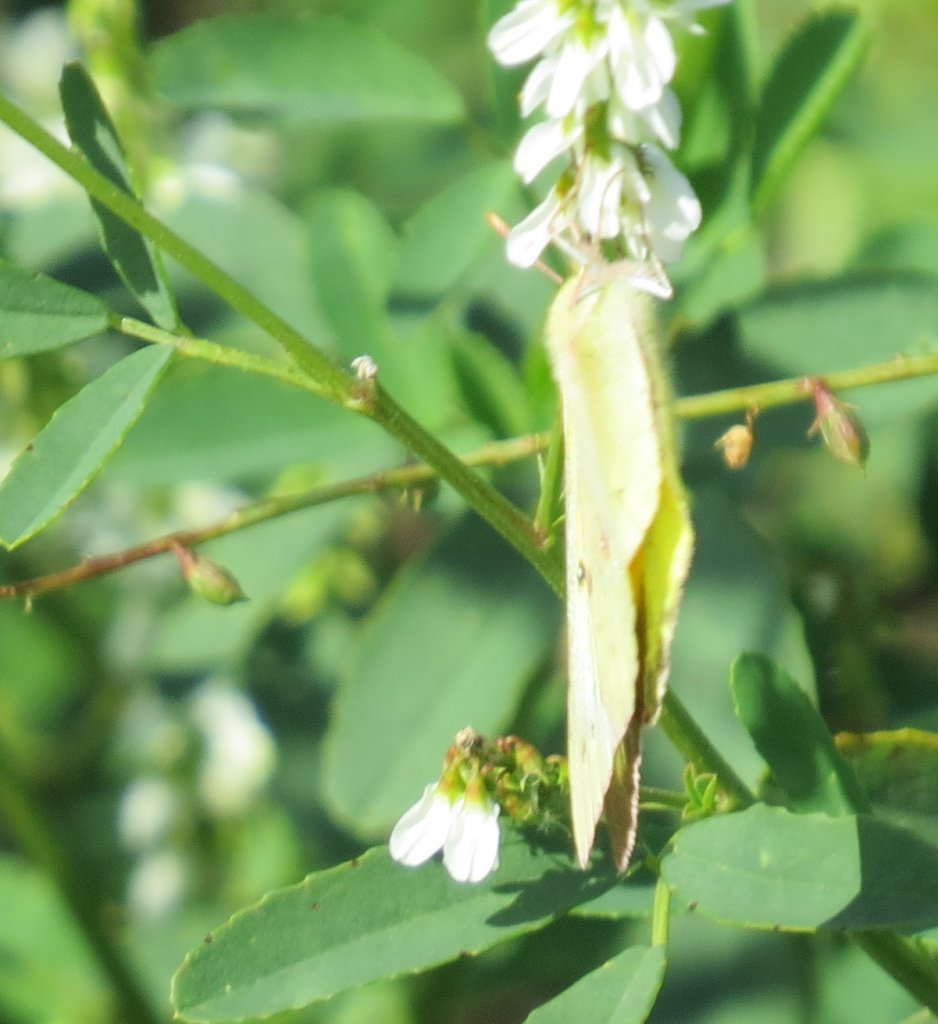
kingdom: Animalia
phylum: Arthropoda
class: Insecta
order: Lepidoptera
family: Pieridae
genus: Abaeis
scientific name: Abaeis nicippe
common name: Sleepy Orange
